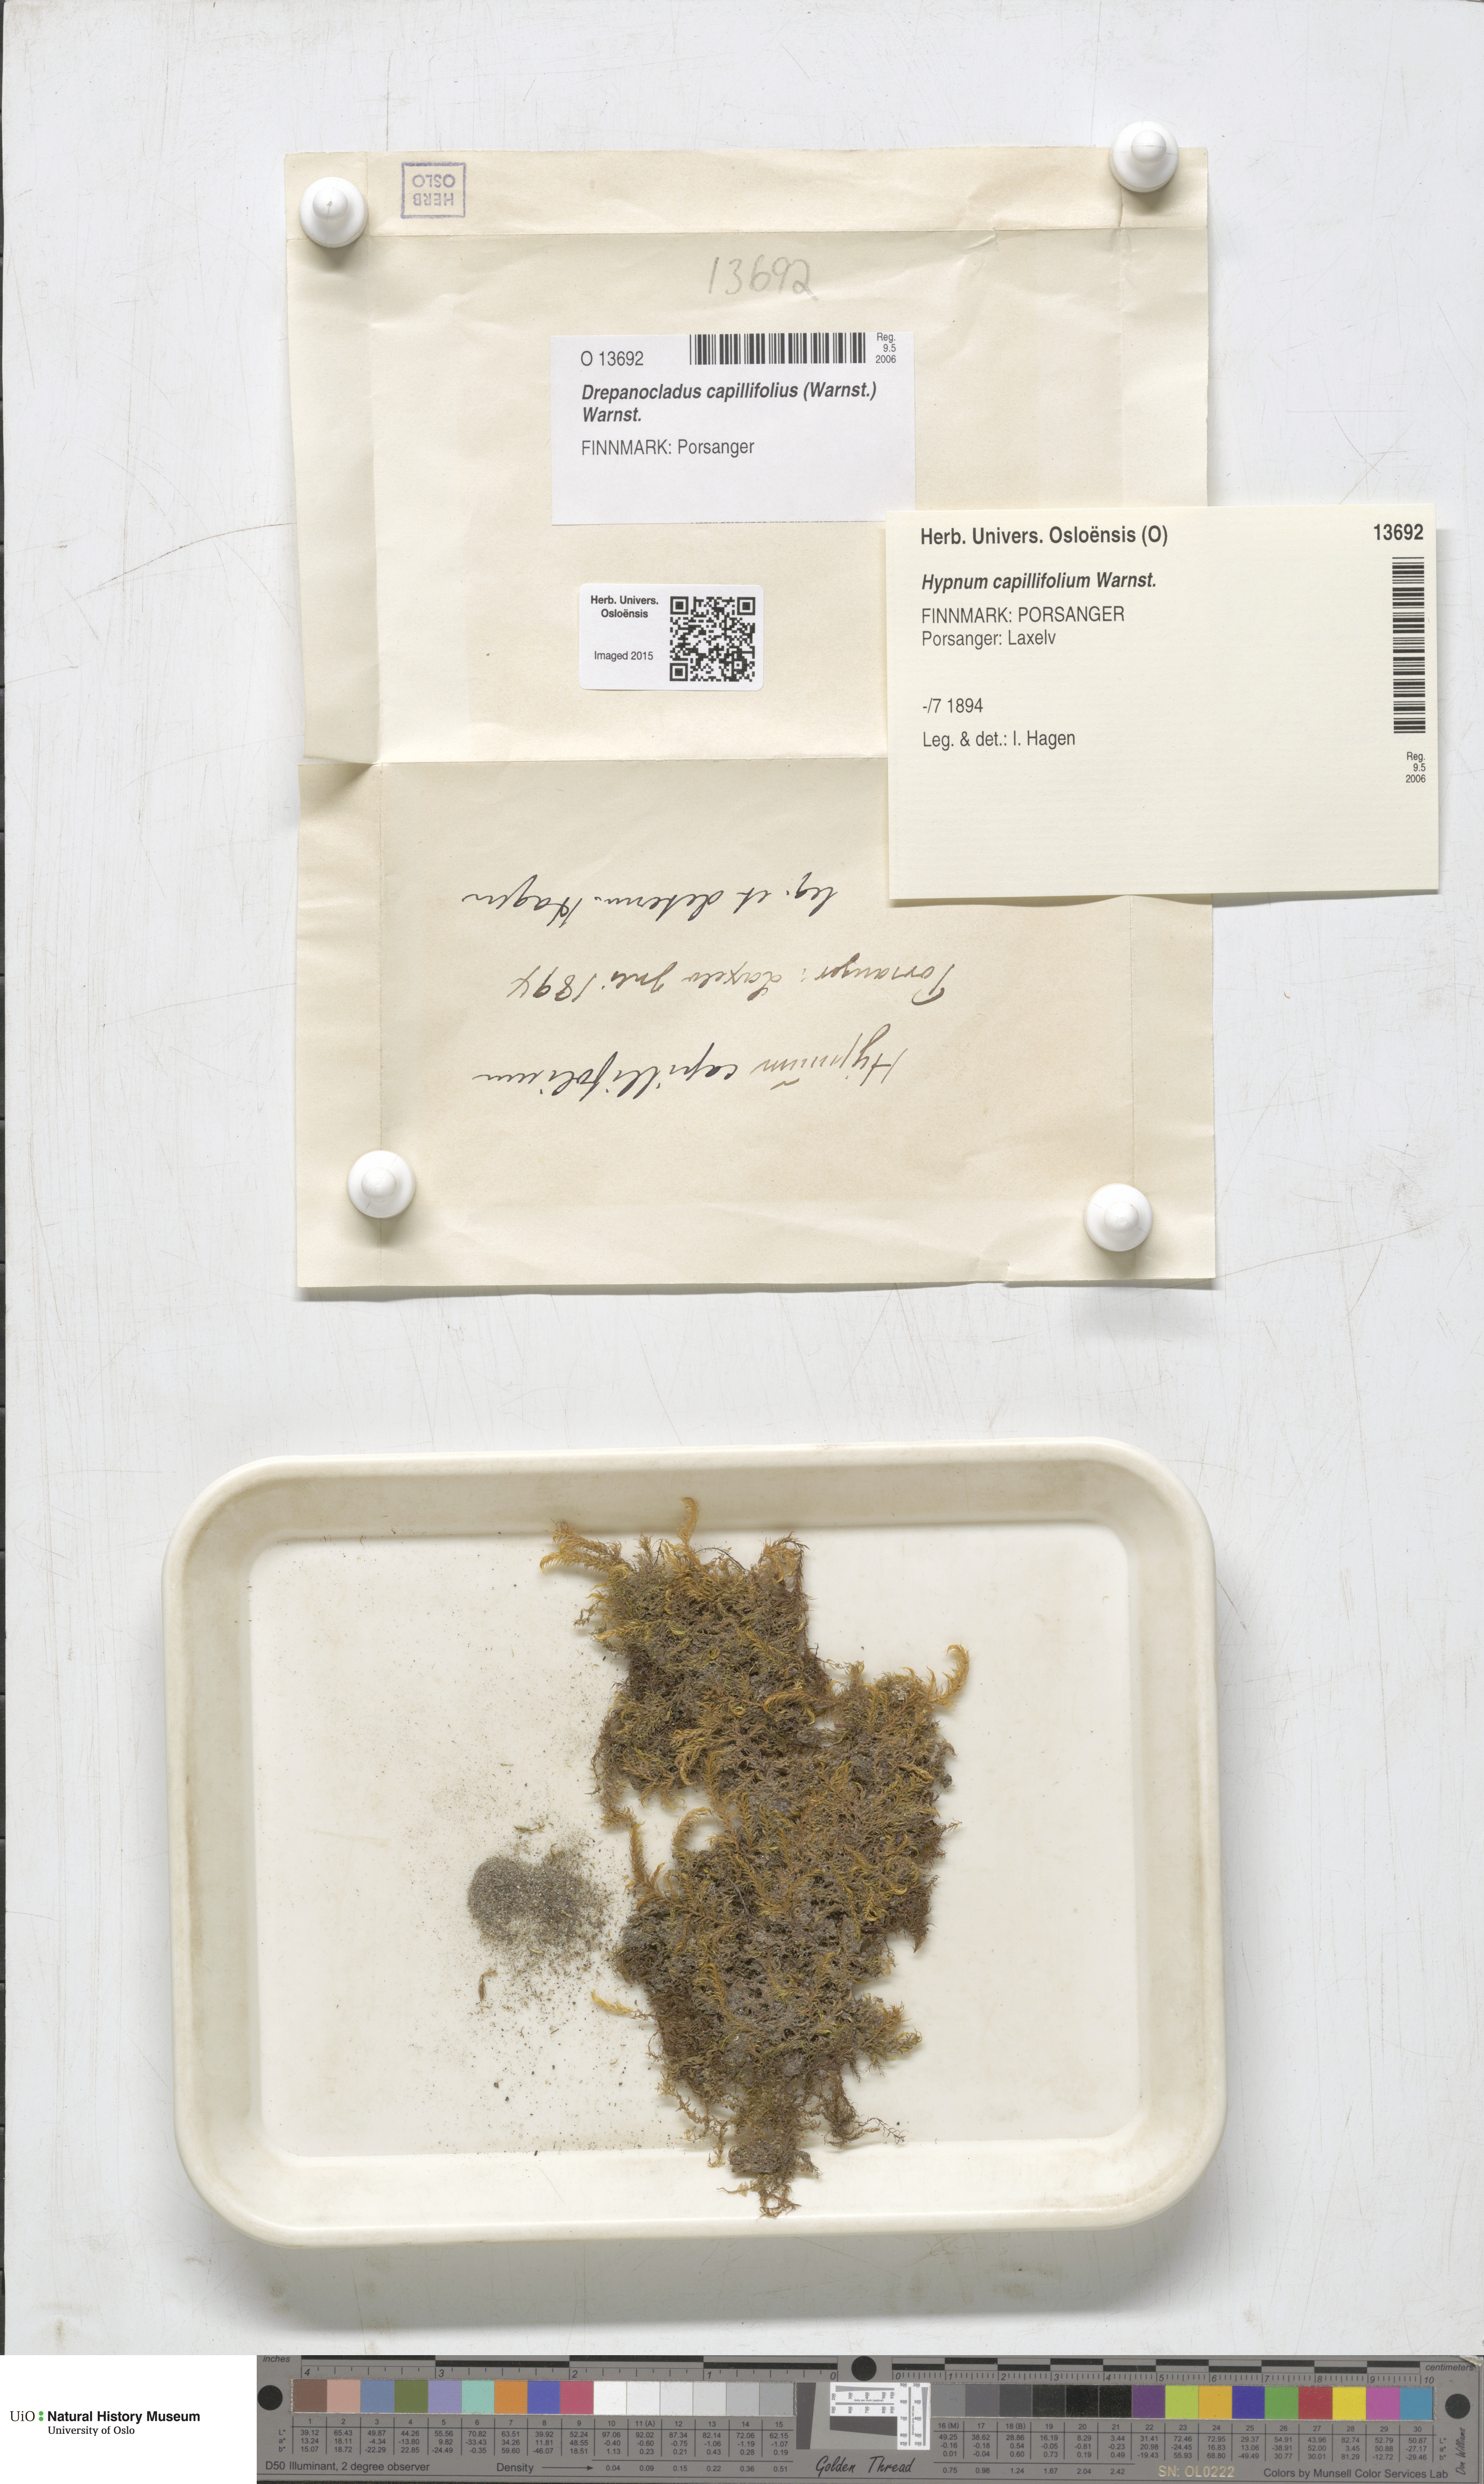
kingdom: Plantae
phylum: Bryophyta
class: Bryopsida
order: Hypnales
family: Amblystegiaceae
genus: Drepanocladus
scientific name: Drepanocladus capillifolius
